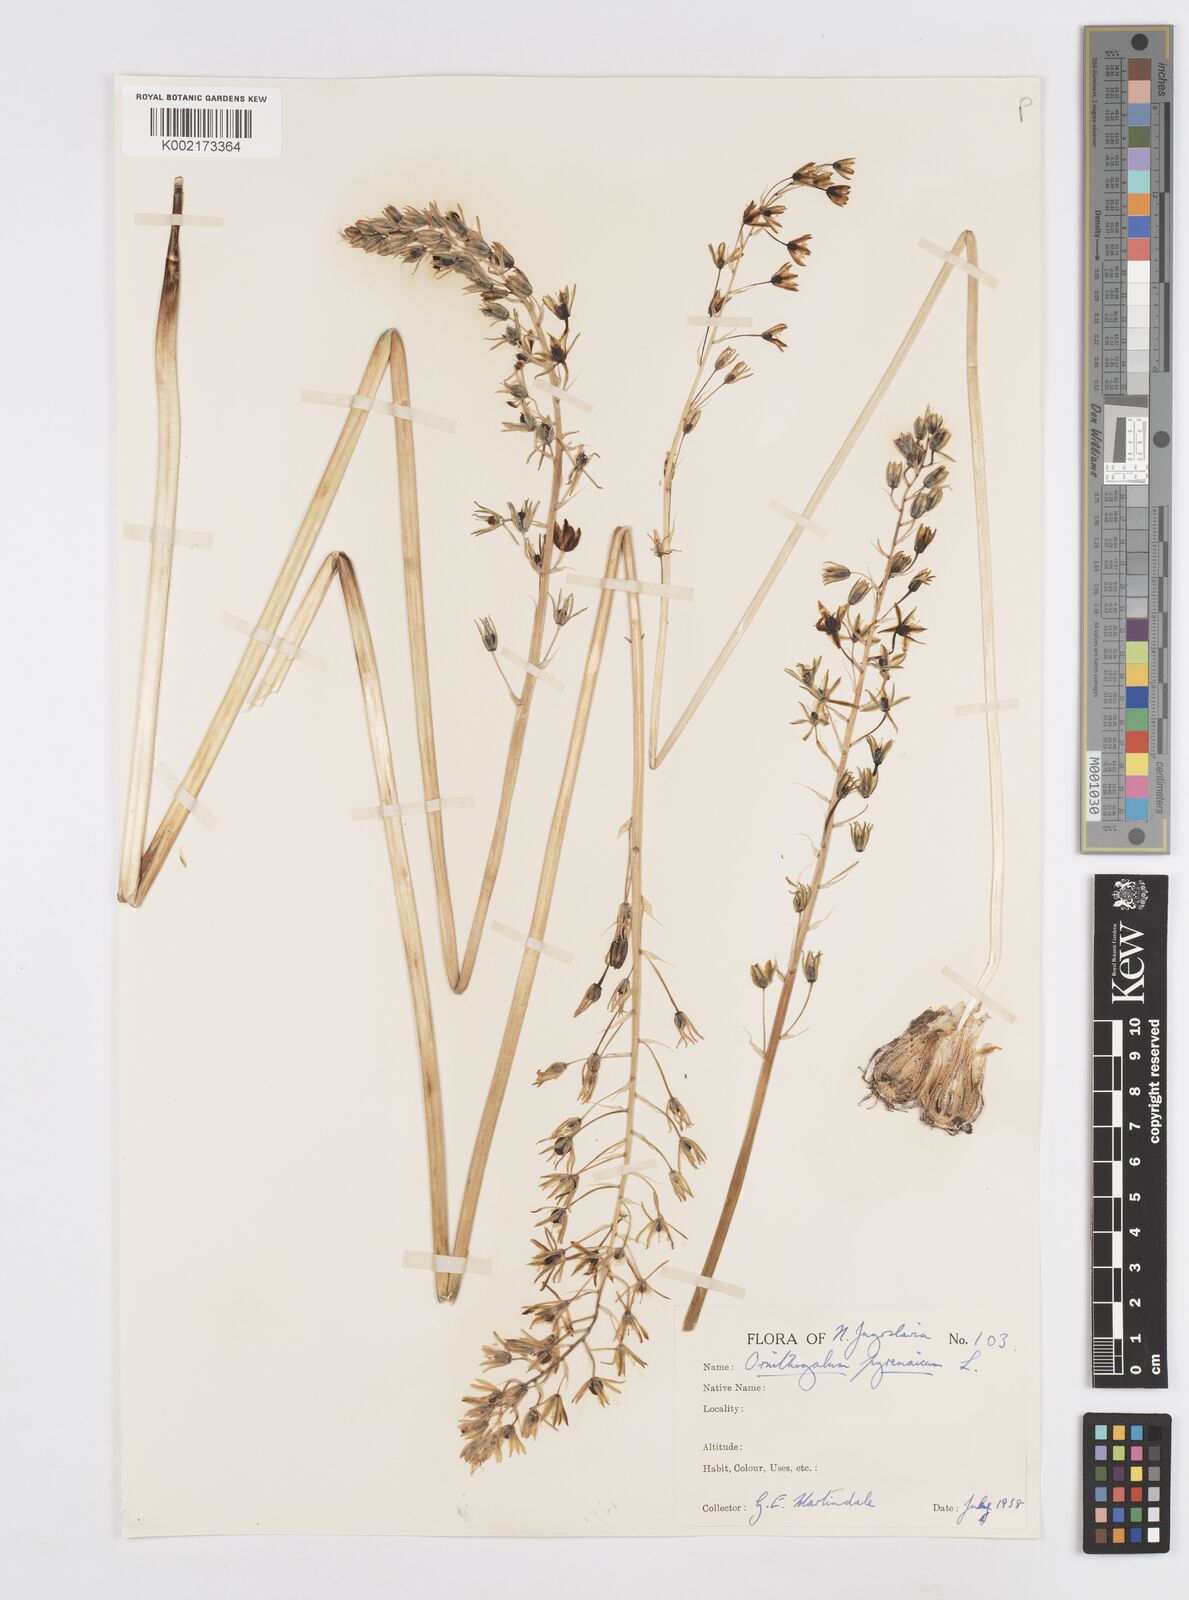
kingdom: Plantae
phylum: Tracheophyta
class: Liliopsida
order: Asparagales
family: Asparagaceae
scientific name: Asparagaceae
